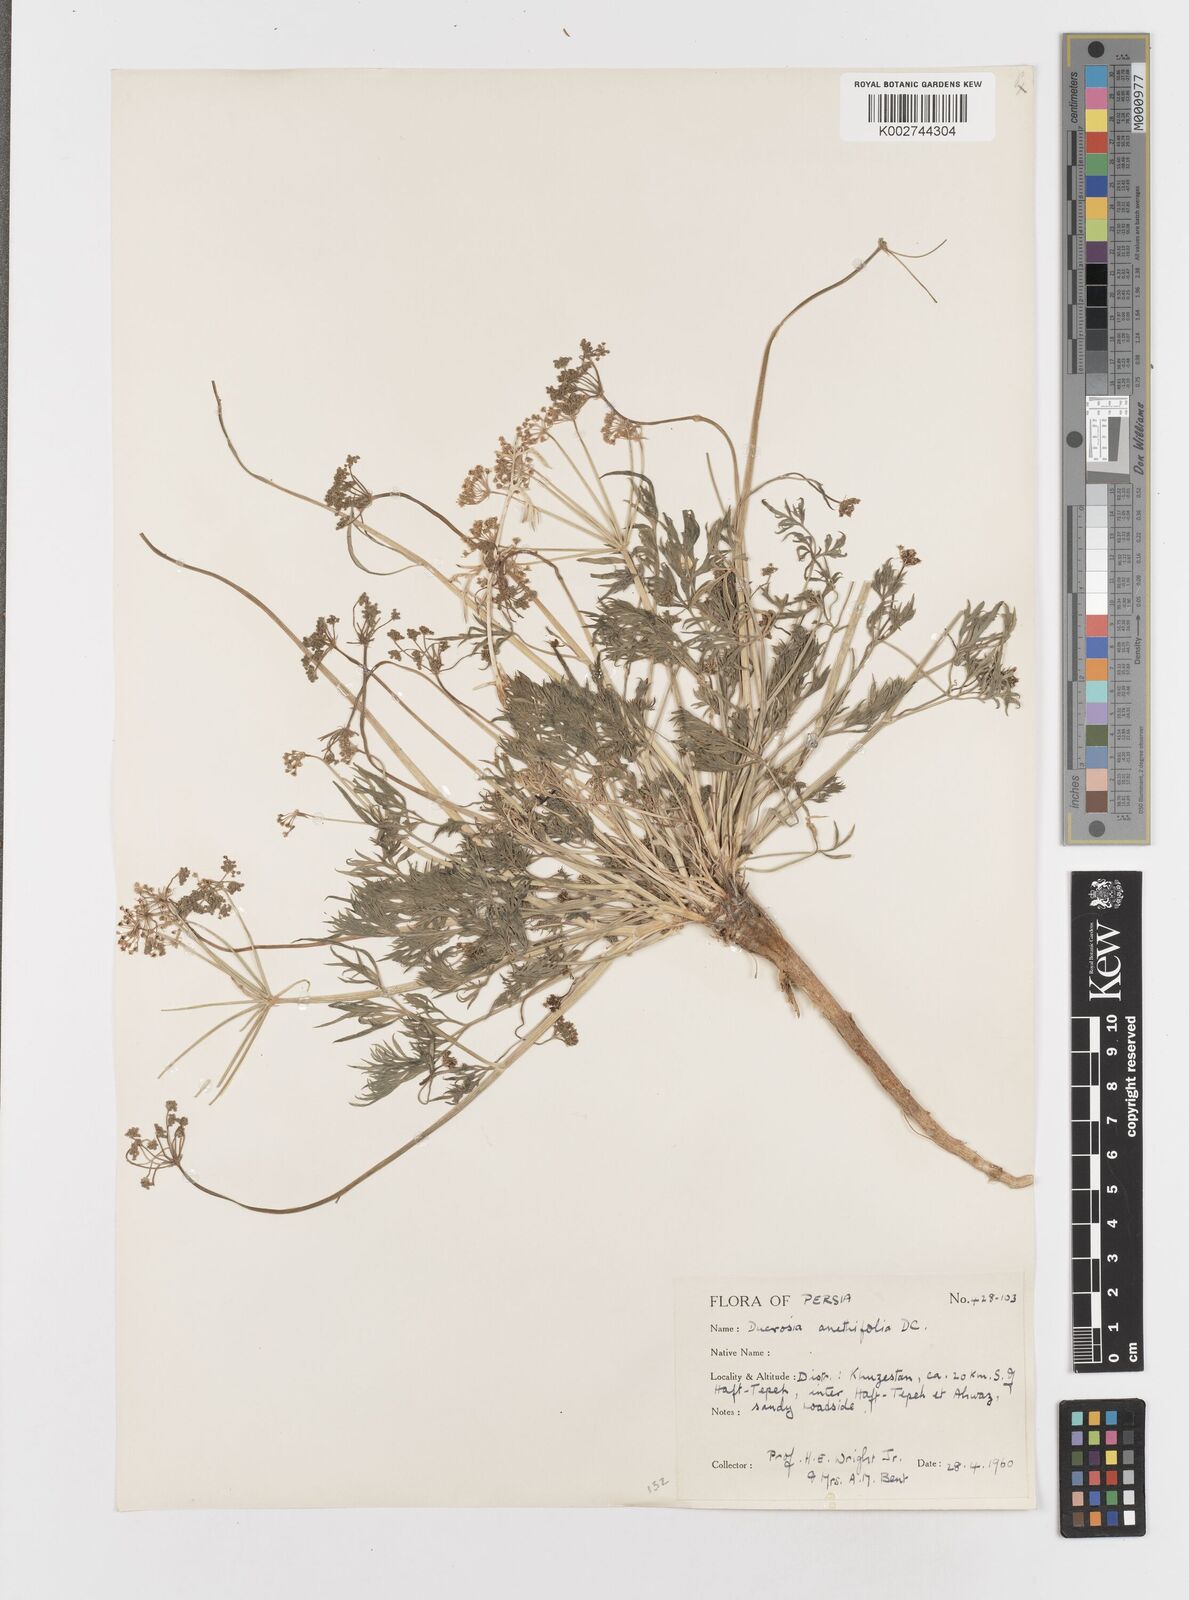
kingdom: Plantae
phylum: Tracheophyta
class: Magnoliopsida
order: Apiales
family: Apiaceae
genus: Ducrosia
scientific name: Ducrosia anethifolia
